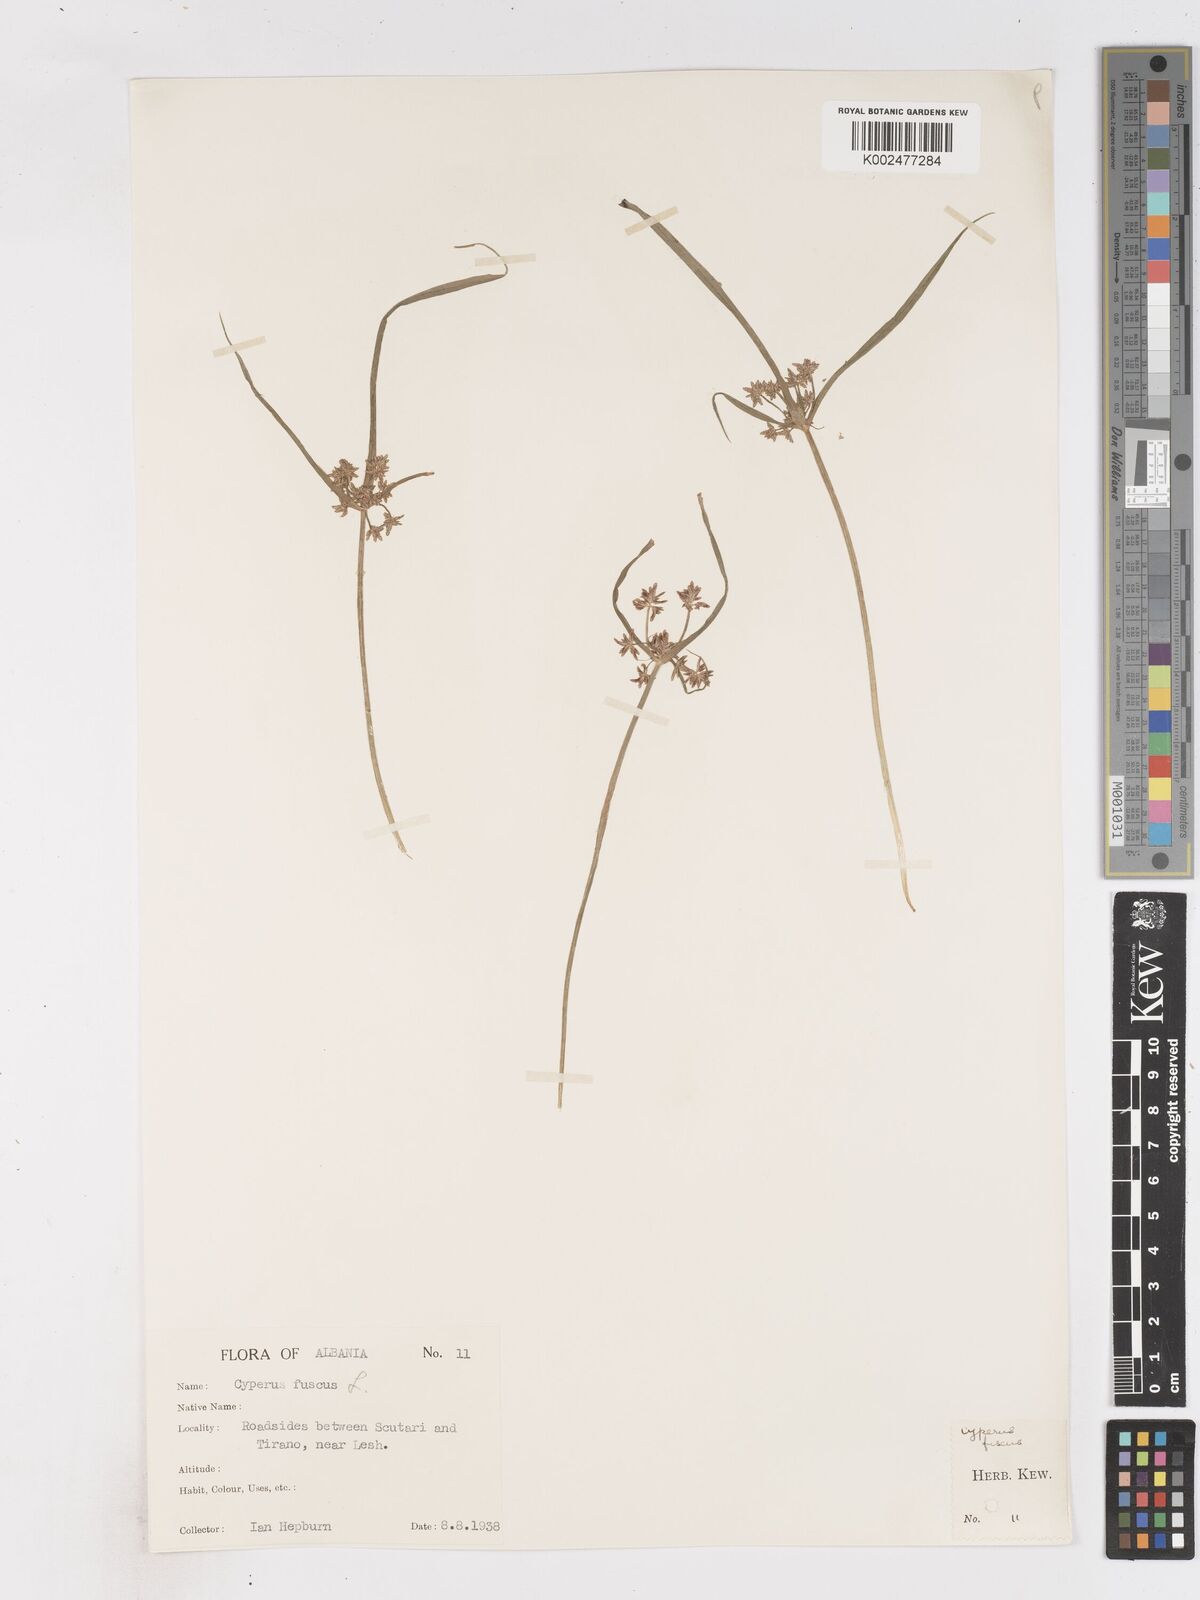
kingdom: Plantae
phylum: Tracheophyta
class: Liliopsida
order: Poales
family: Cyperaceae
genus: Cyperus
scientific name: Cyperus fuscus
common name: Brown galingale
